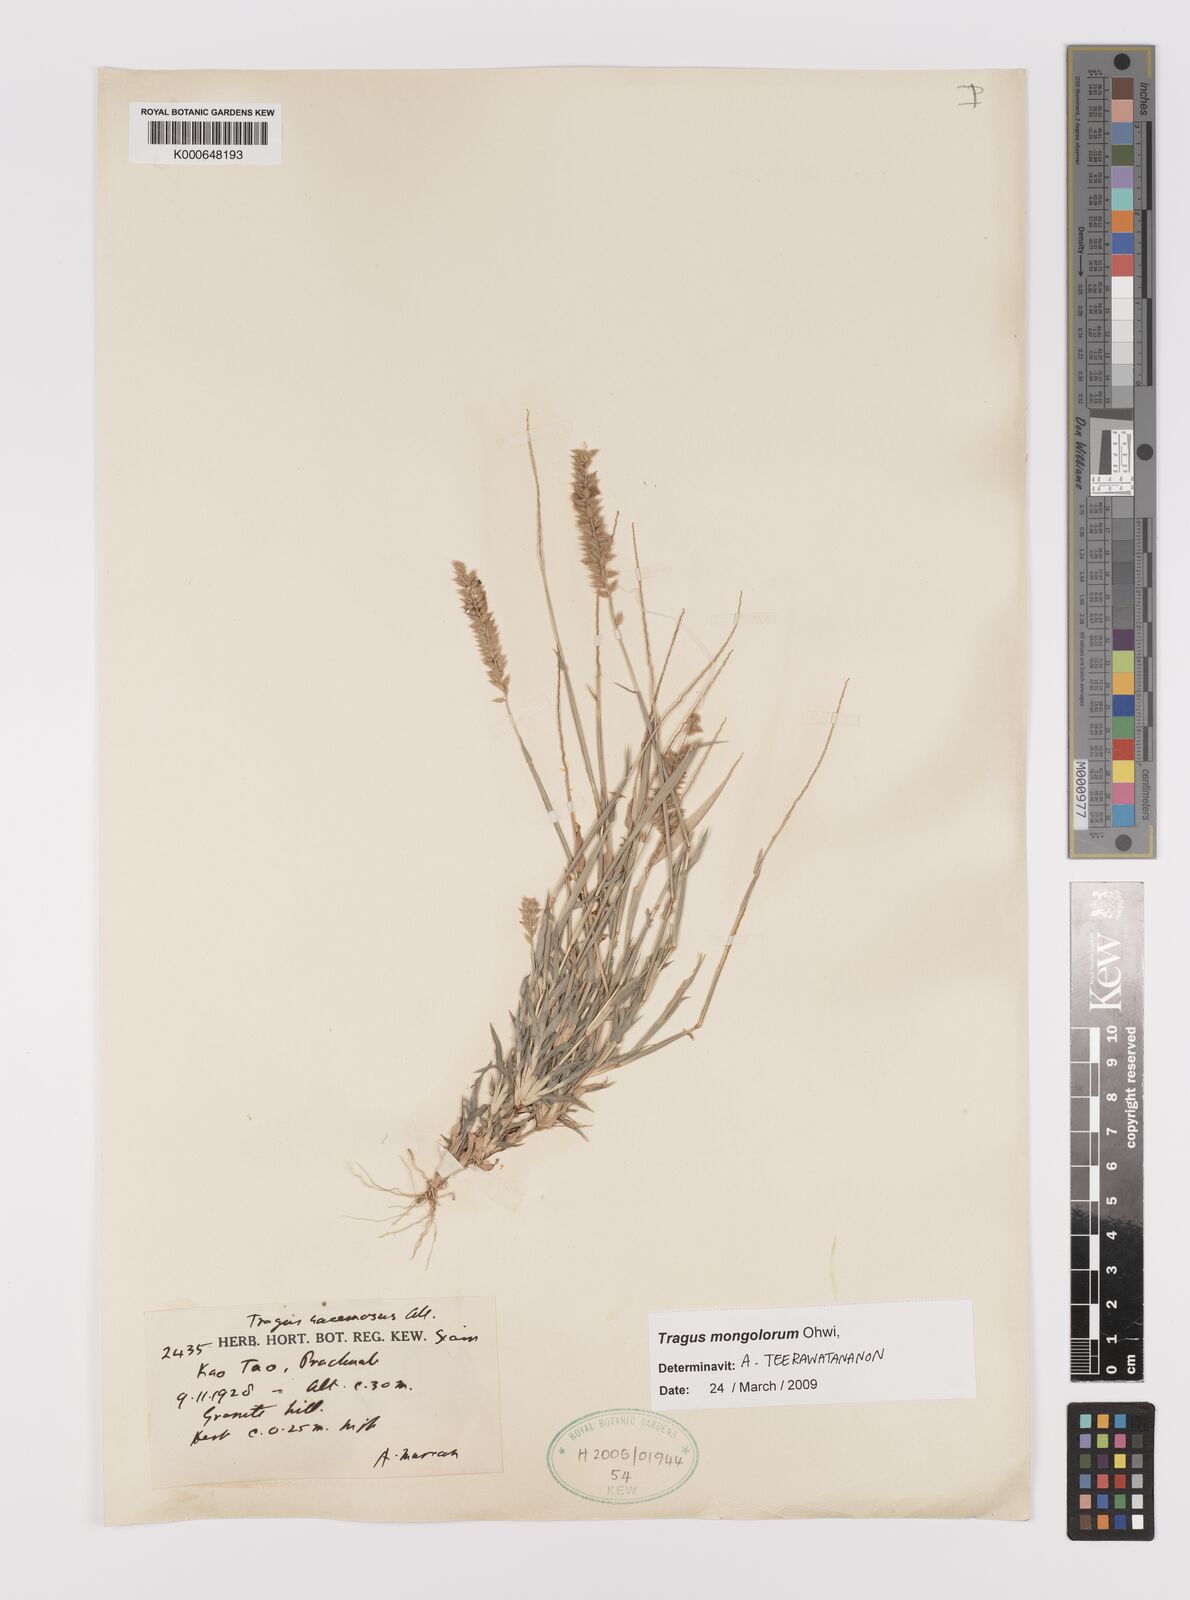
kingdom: Plantae
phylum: Tracheophyta
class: Liliopsida
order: Poales
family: Poaceae
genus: Tragus
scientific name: Tragus mongolorum
